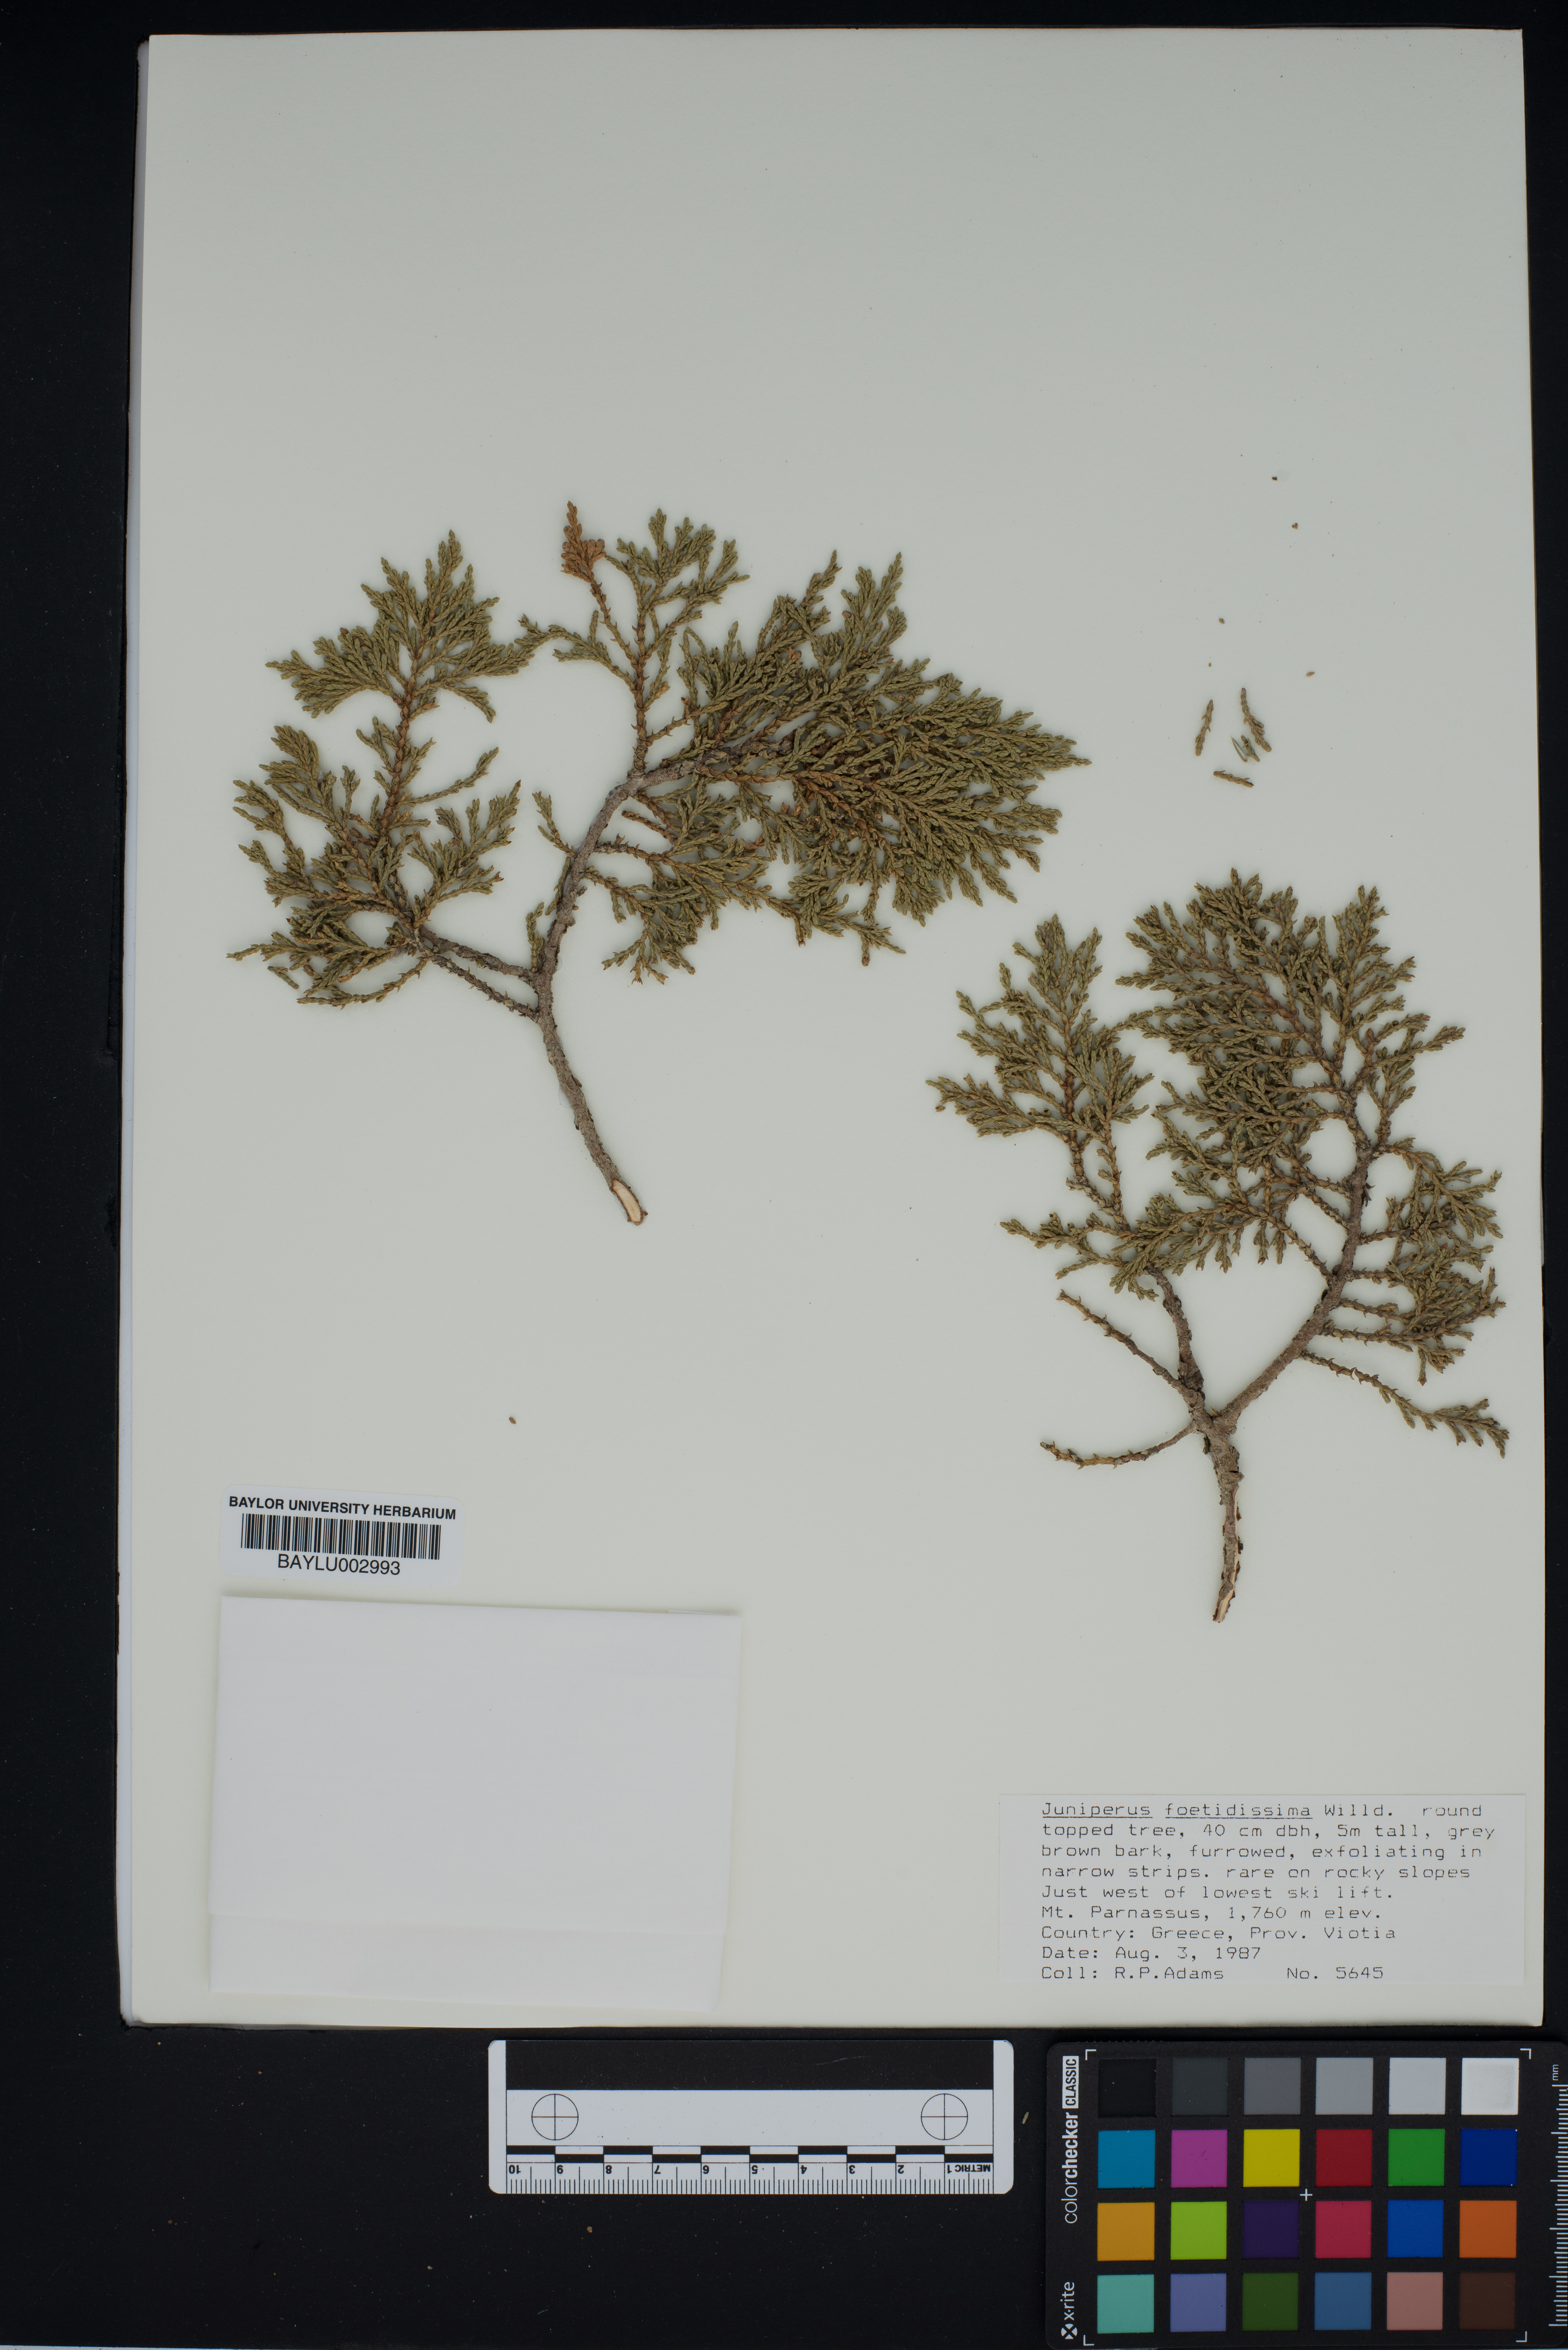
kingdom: Plantae
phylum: Tracheophyta
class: Pinopsida
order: Pinales
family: Cupressaceae
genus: Juniperus
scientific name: Juniperus foetidissima
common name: Stinking juniper
